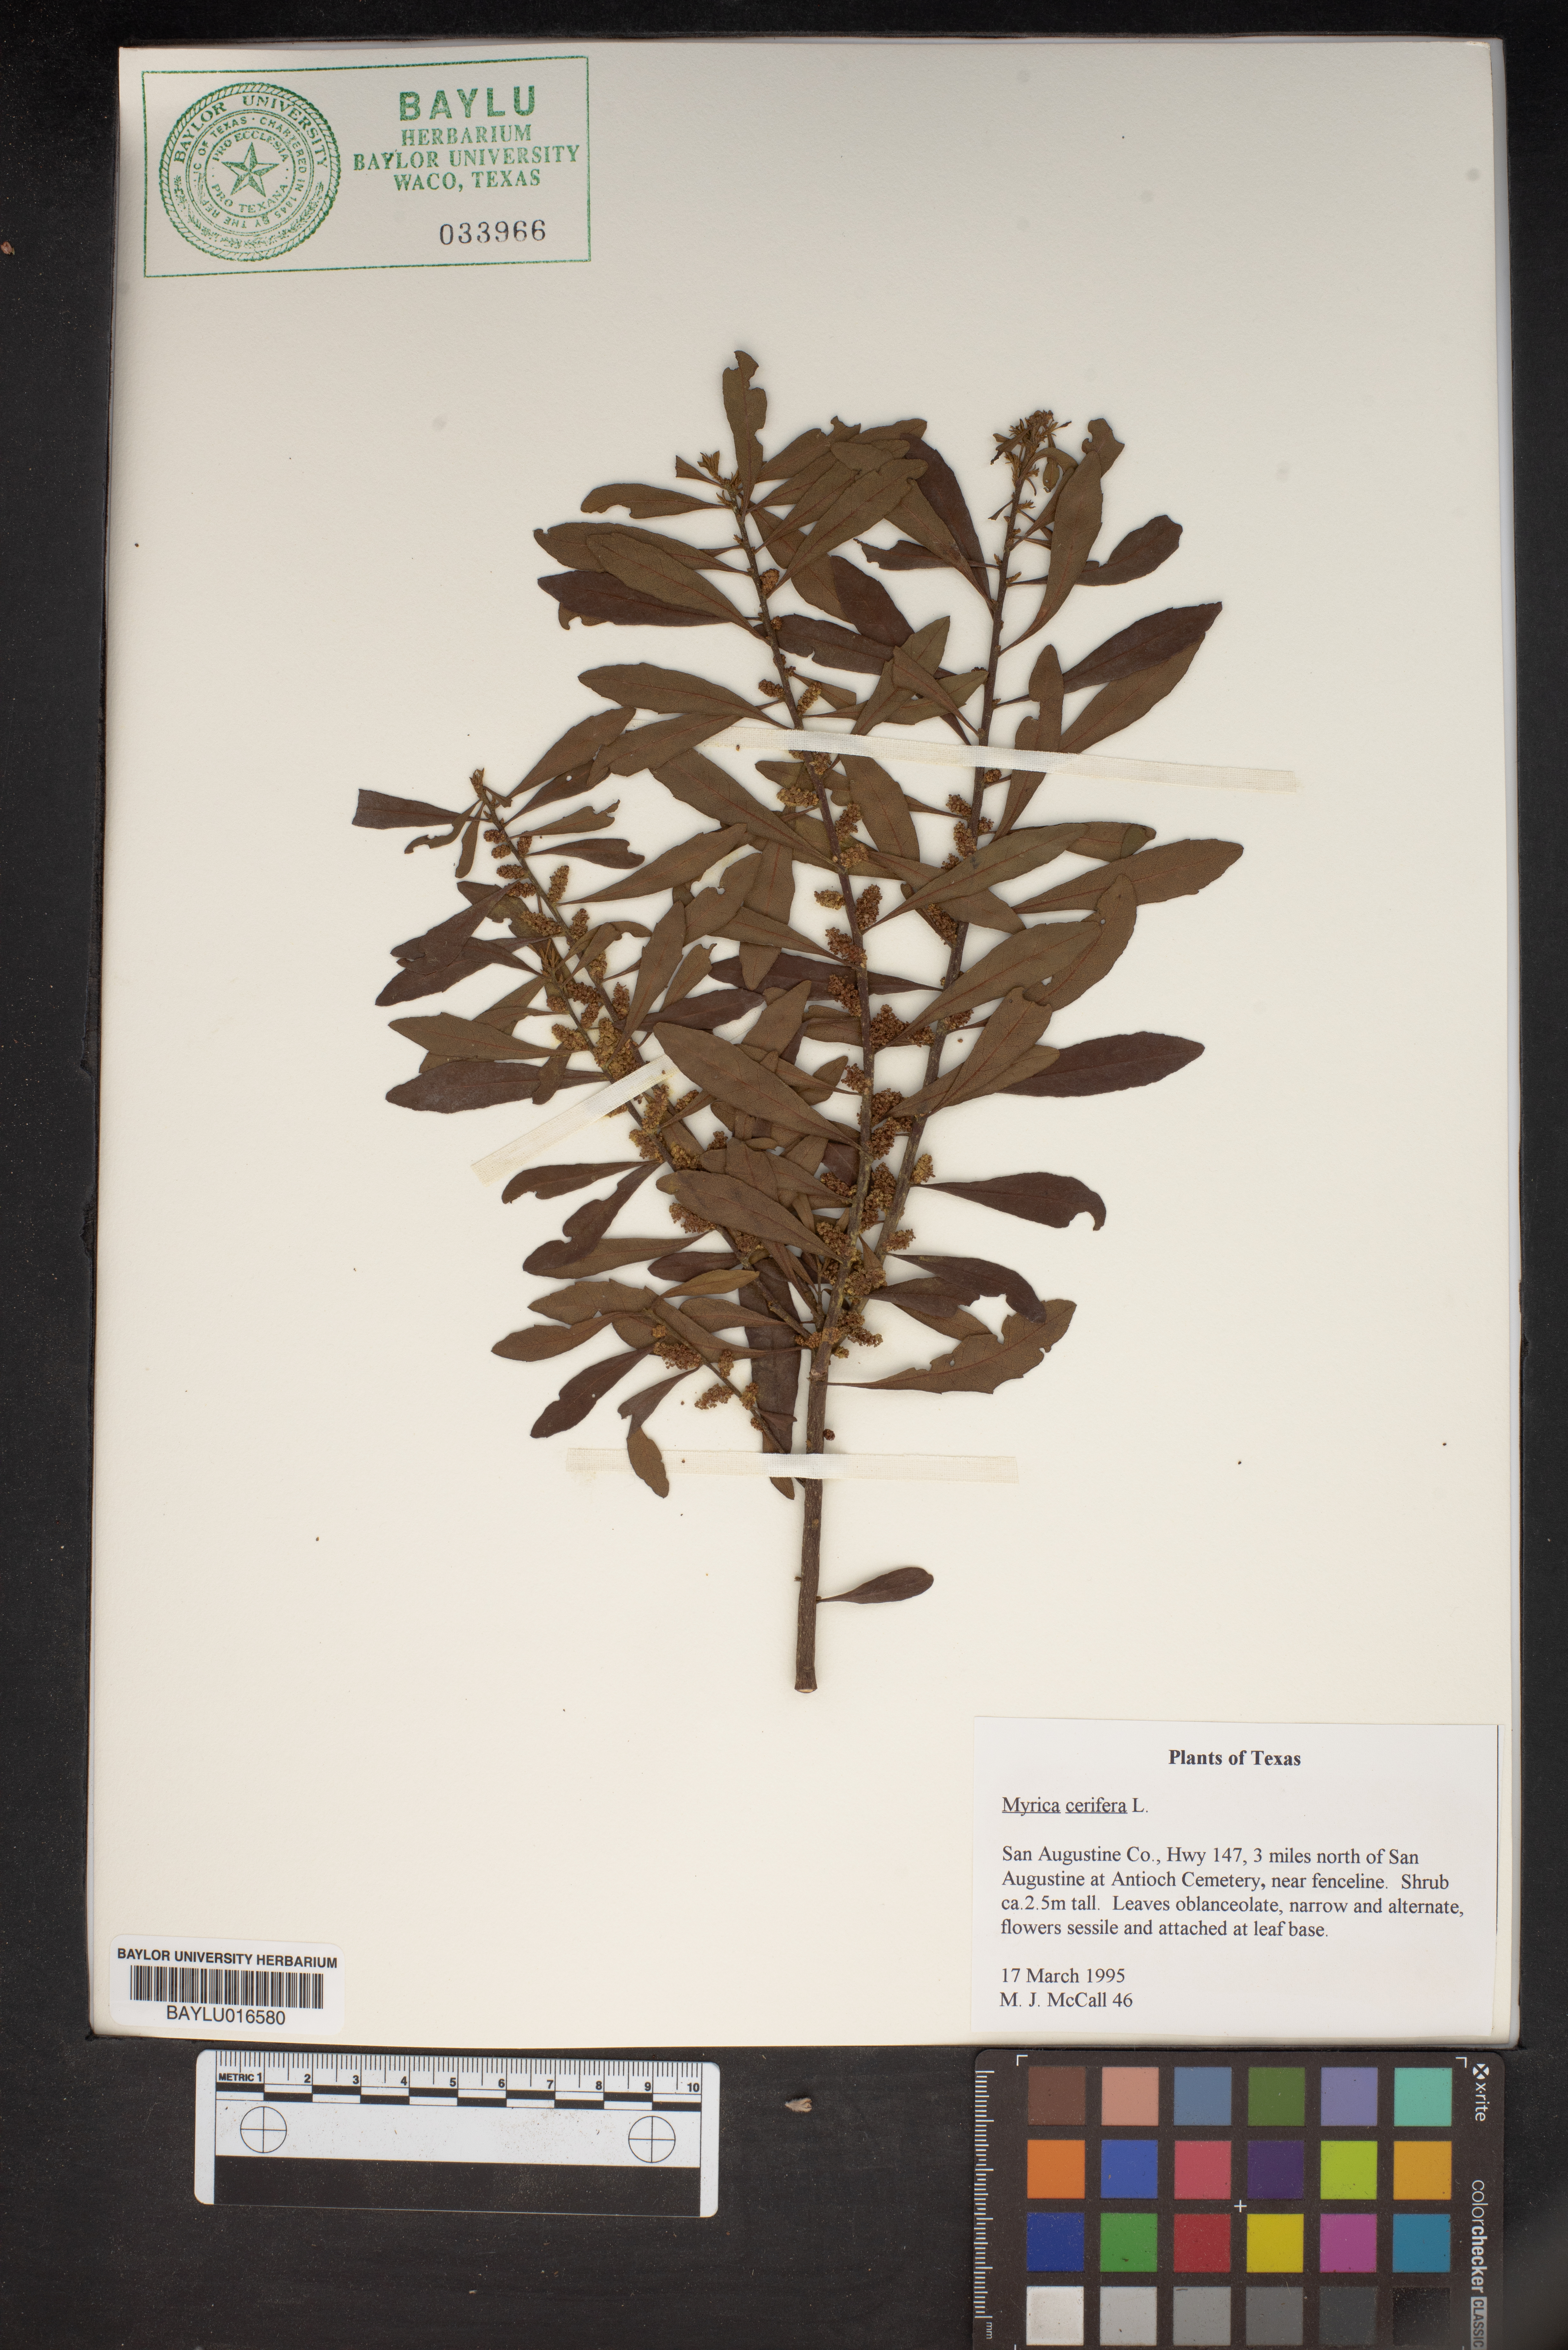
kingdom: Plantae
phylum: Tracheophyta
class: Magnoliopsida
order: Fagales
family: Myricaceae
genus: Morella
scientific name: Morella cerifera
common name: Wax myrtle
